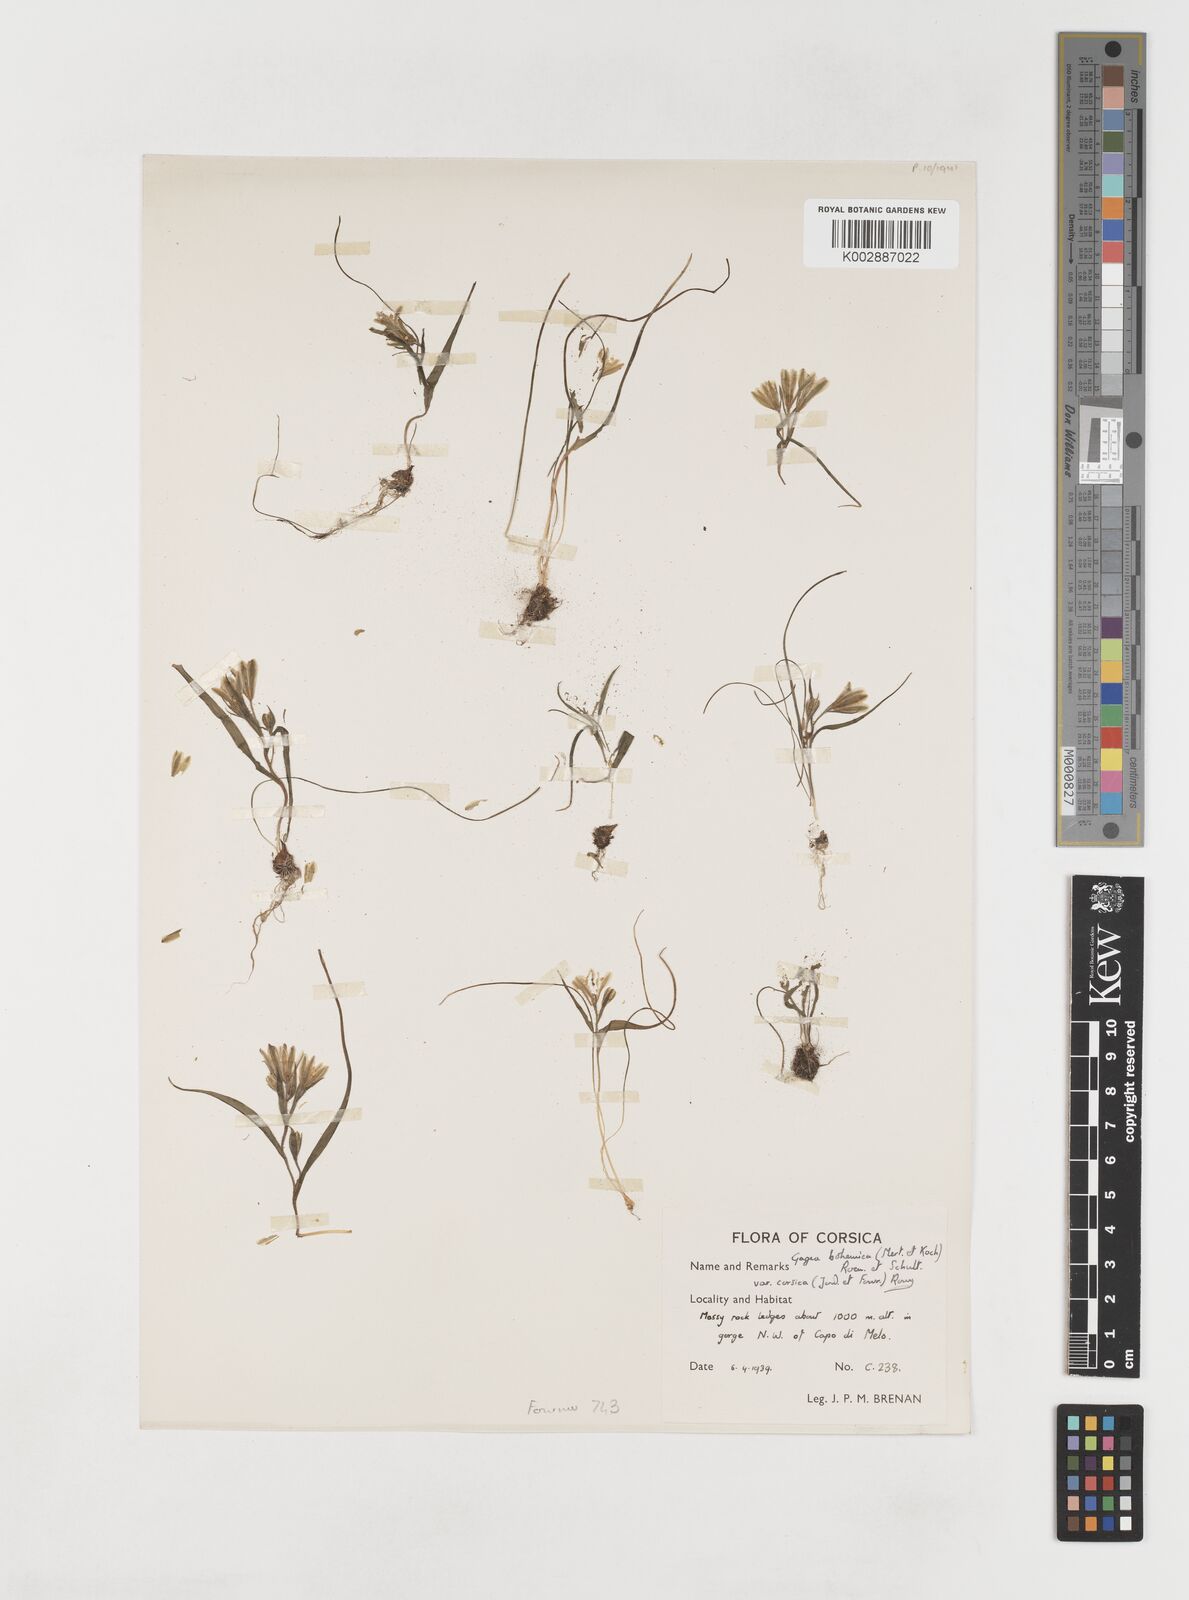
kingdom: Plantae
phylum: Tracheophyta
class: Liliopsida
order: Liliales
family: Liliaceae
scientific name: Liliaceae
